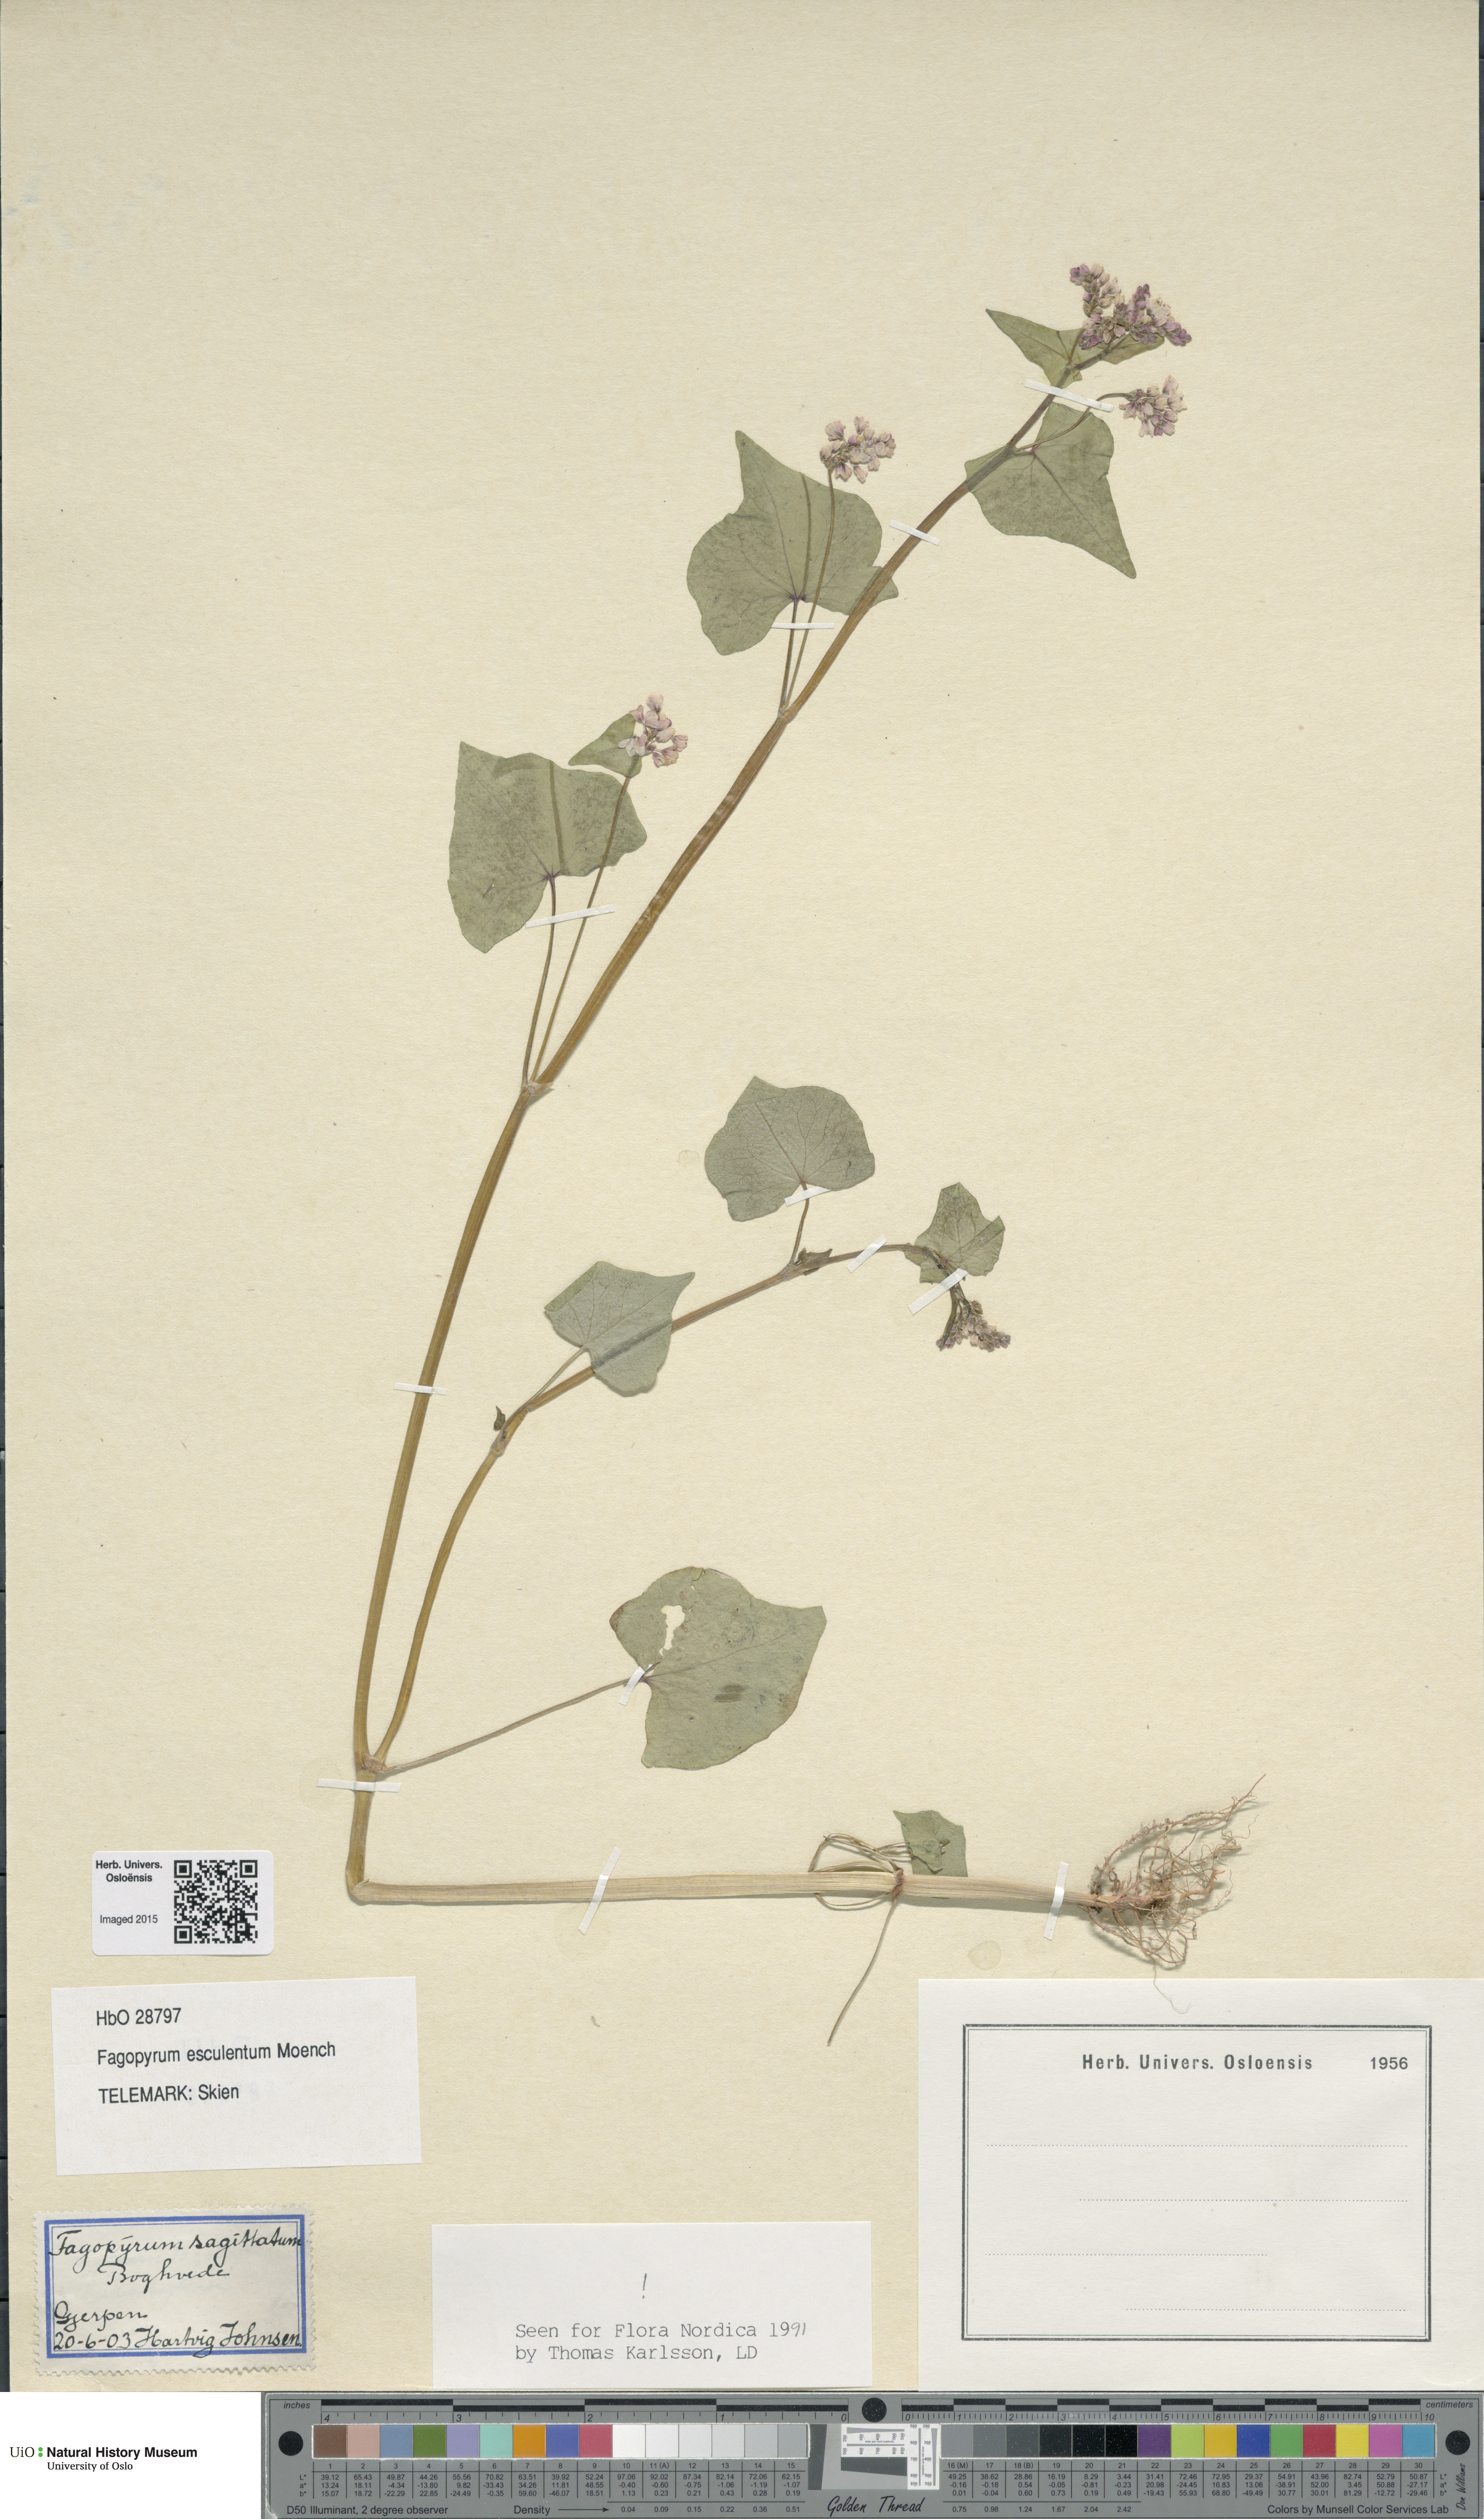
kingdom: Plantae
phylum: Tracheophyta
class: Magnoliopsida
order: Caryophyllales
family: Polygonaceae
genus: Fagopyrum
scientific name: Fagopyrum esculentum
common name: Buckwheat
